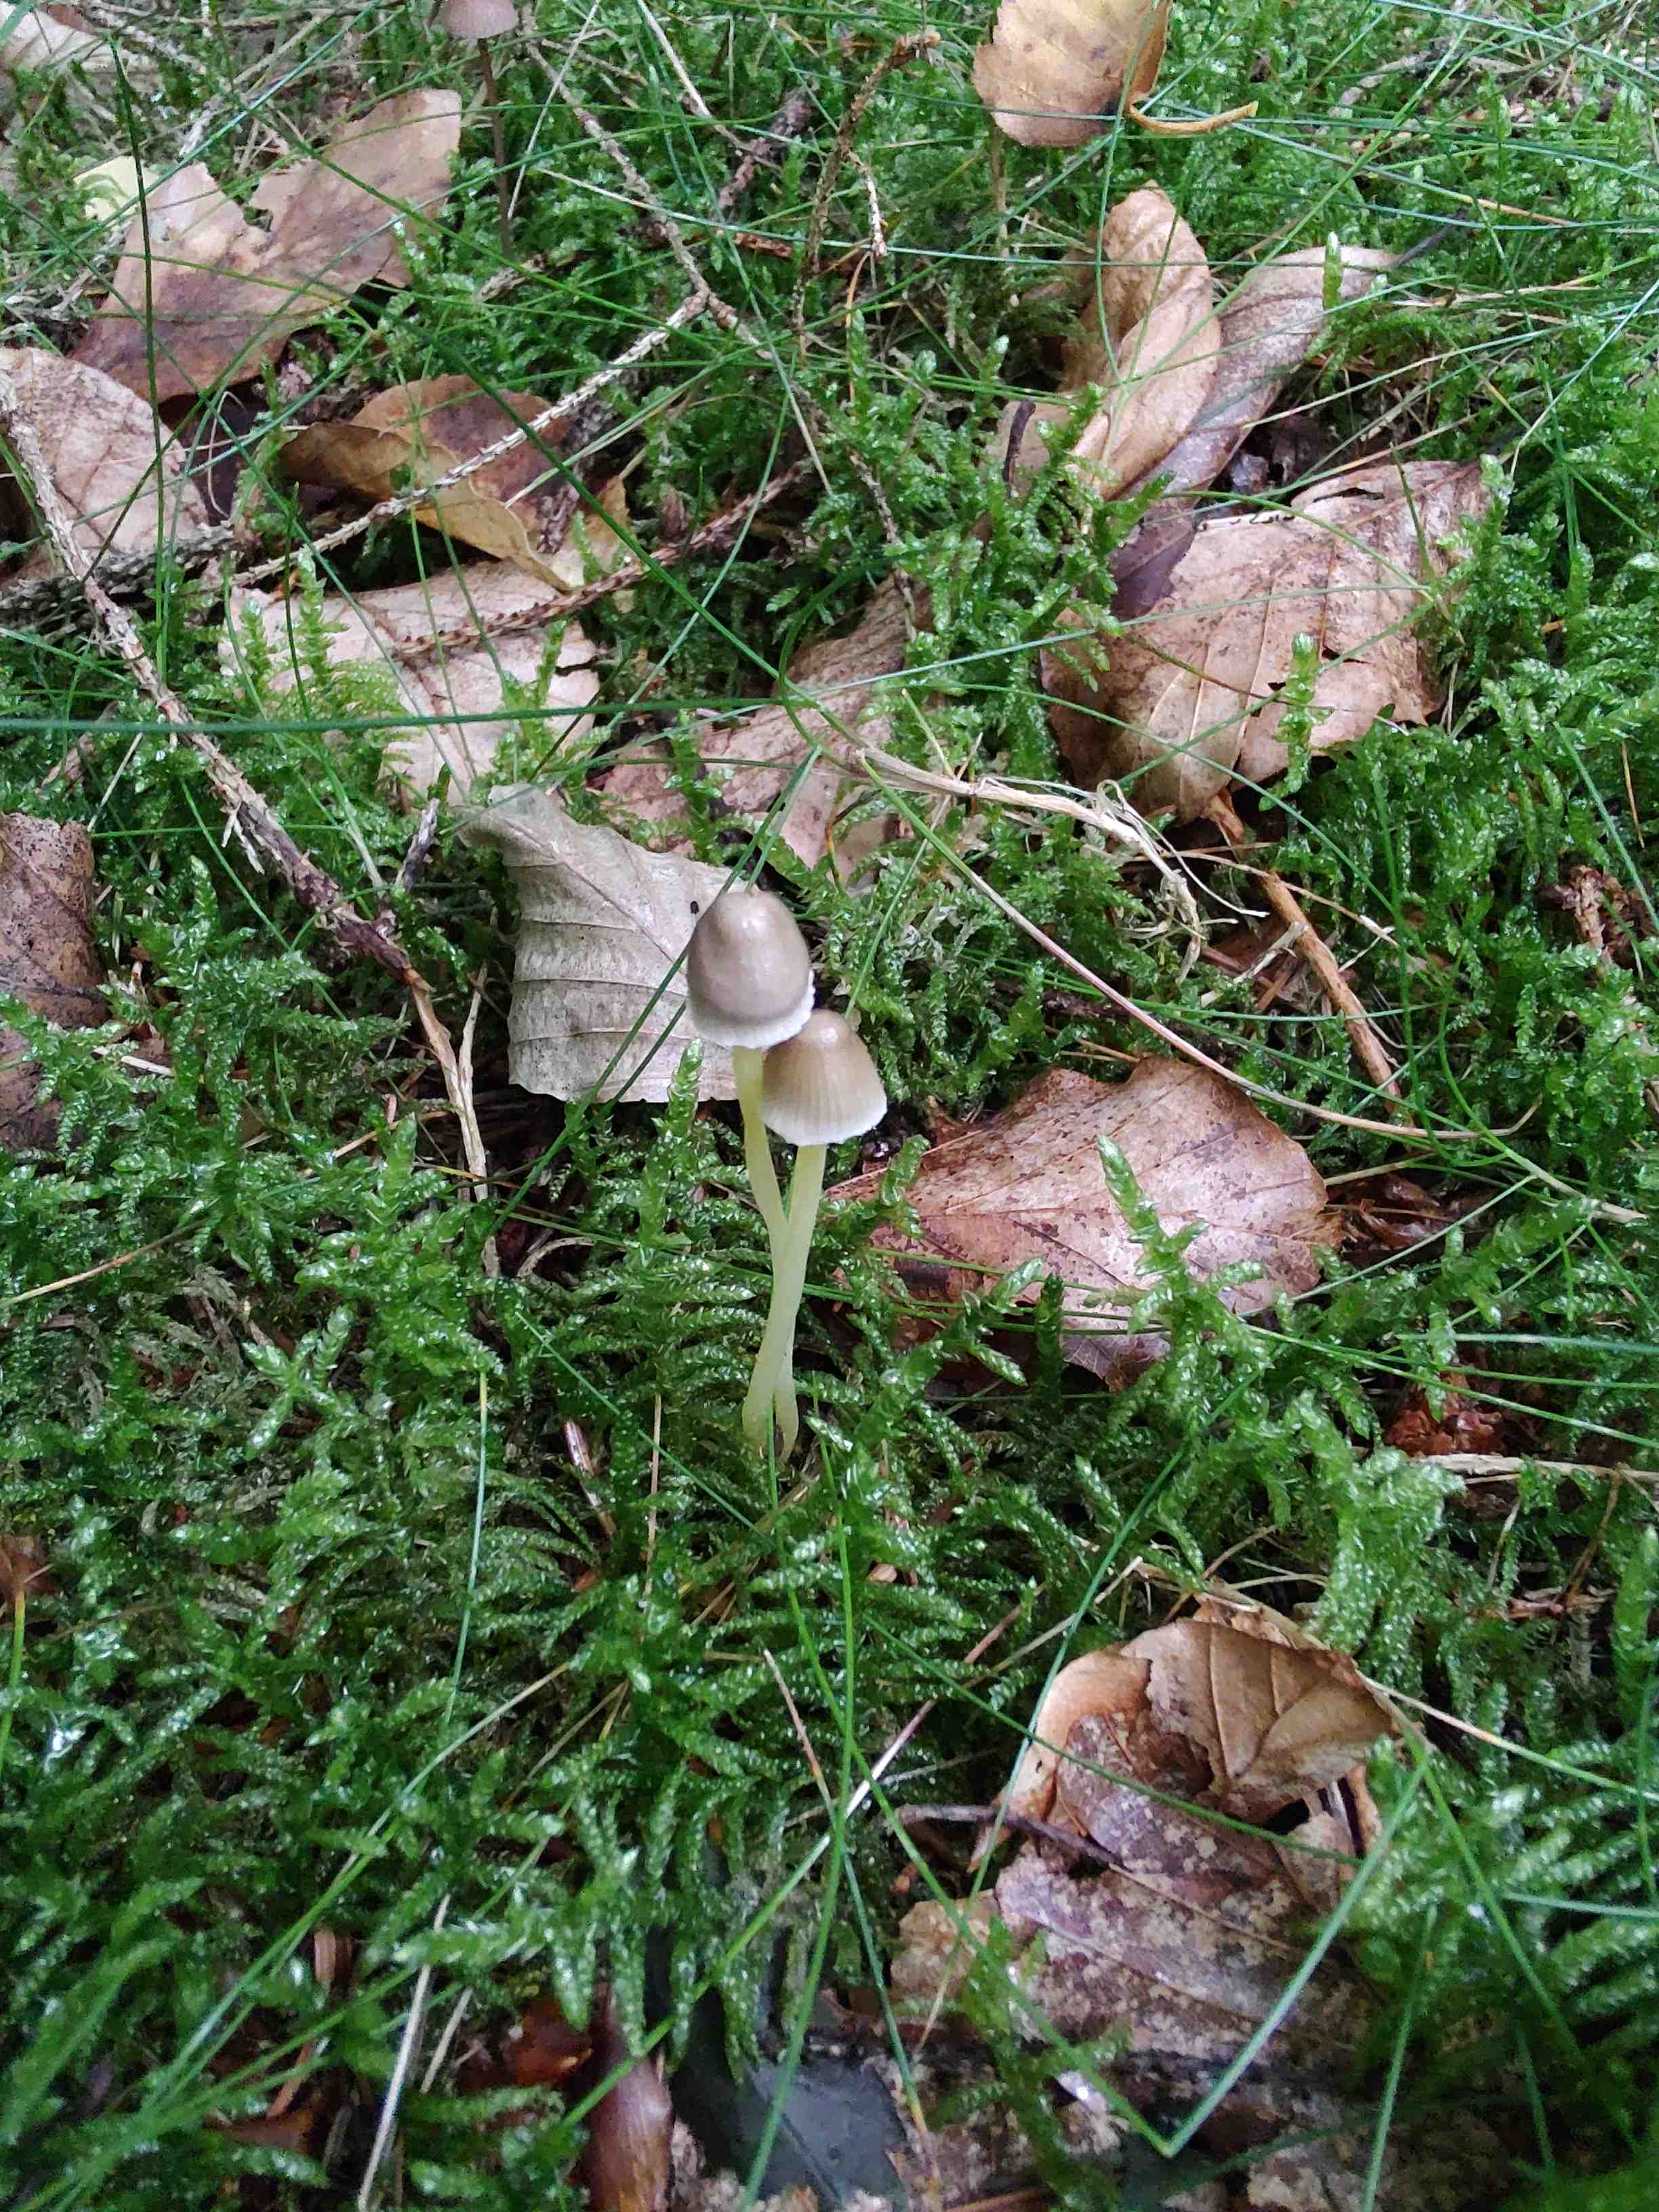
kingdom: Fungi
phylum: Basidiomycota
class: Agaricomycetes
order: Agaricales
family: Mycenaceae
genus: Mycena
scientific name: Mycena epipterygia
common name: gulstokket huesvamp
